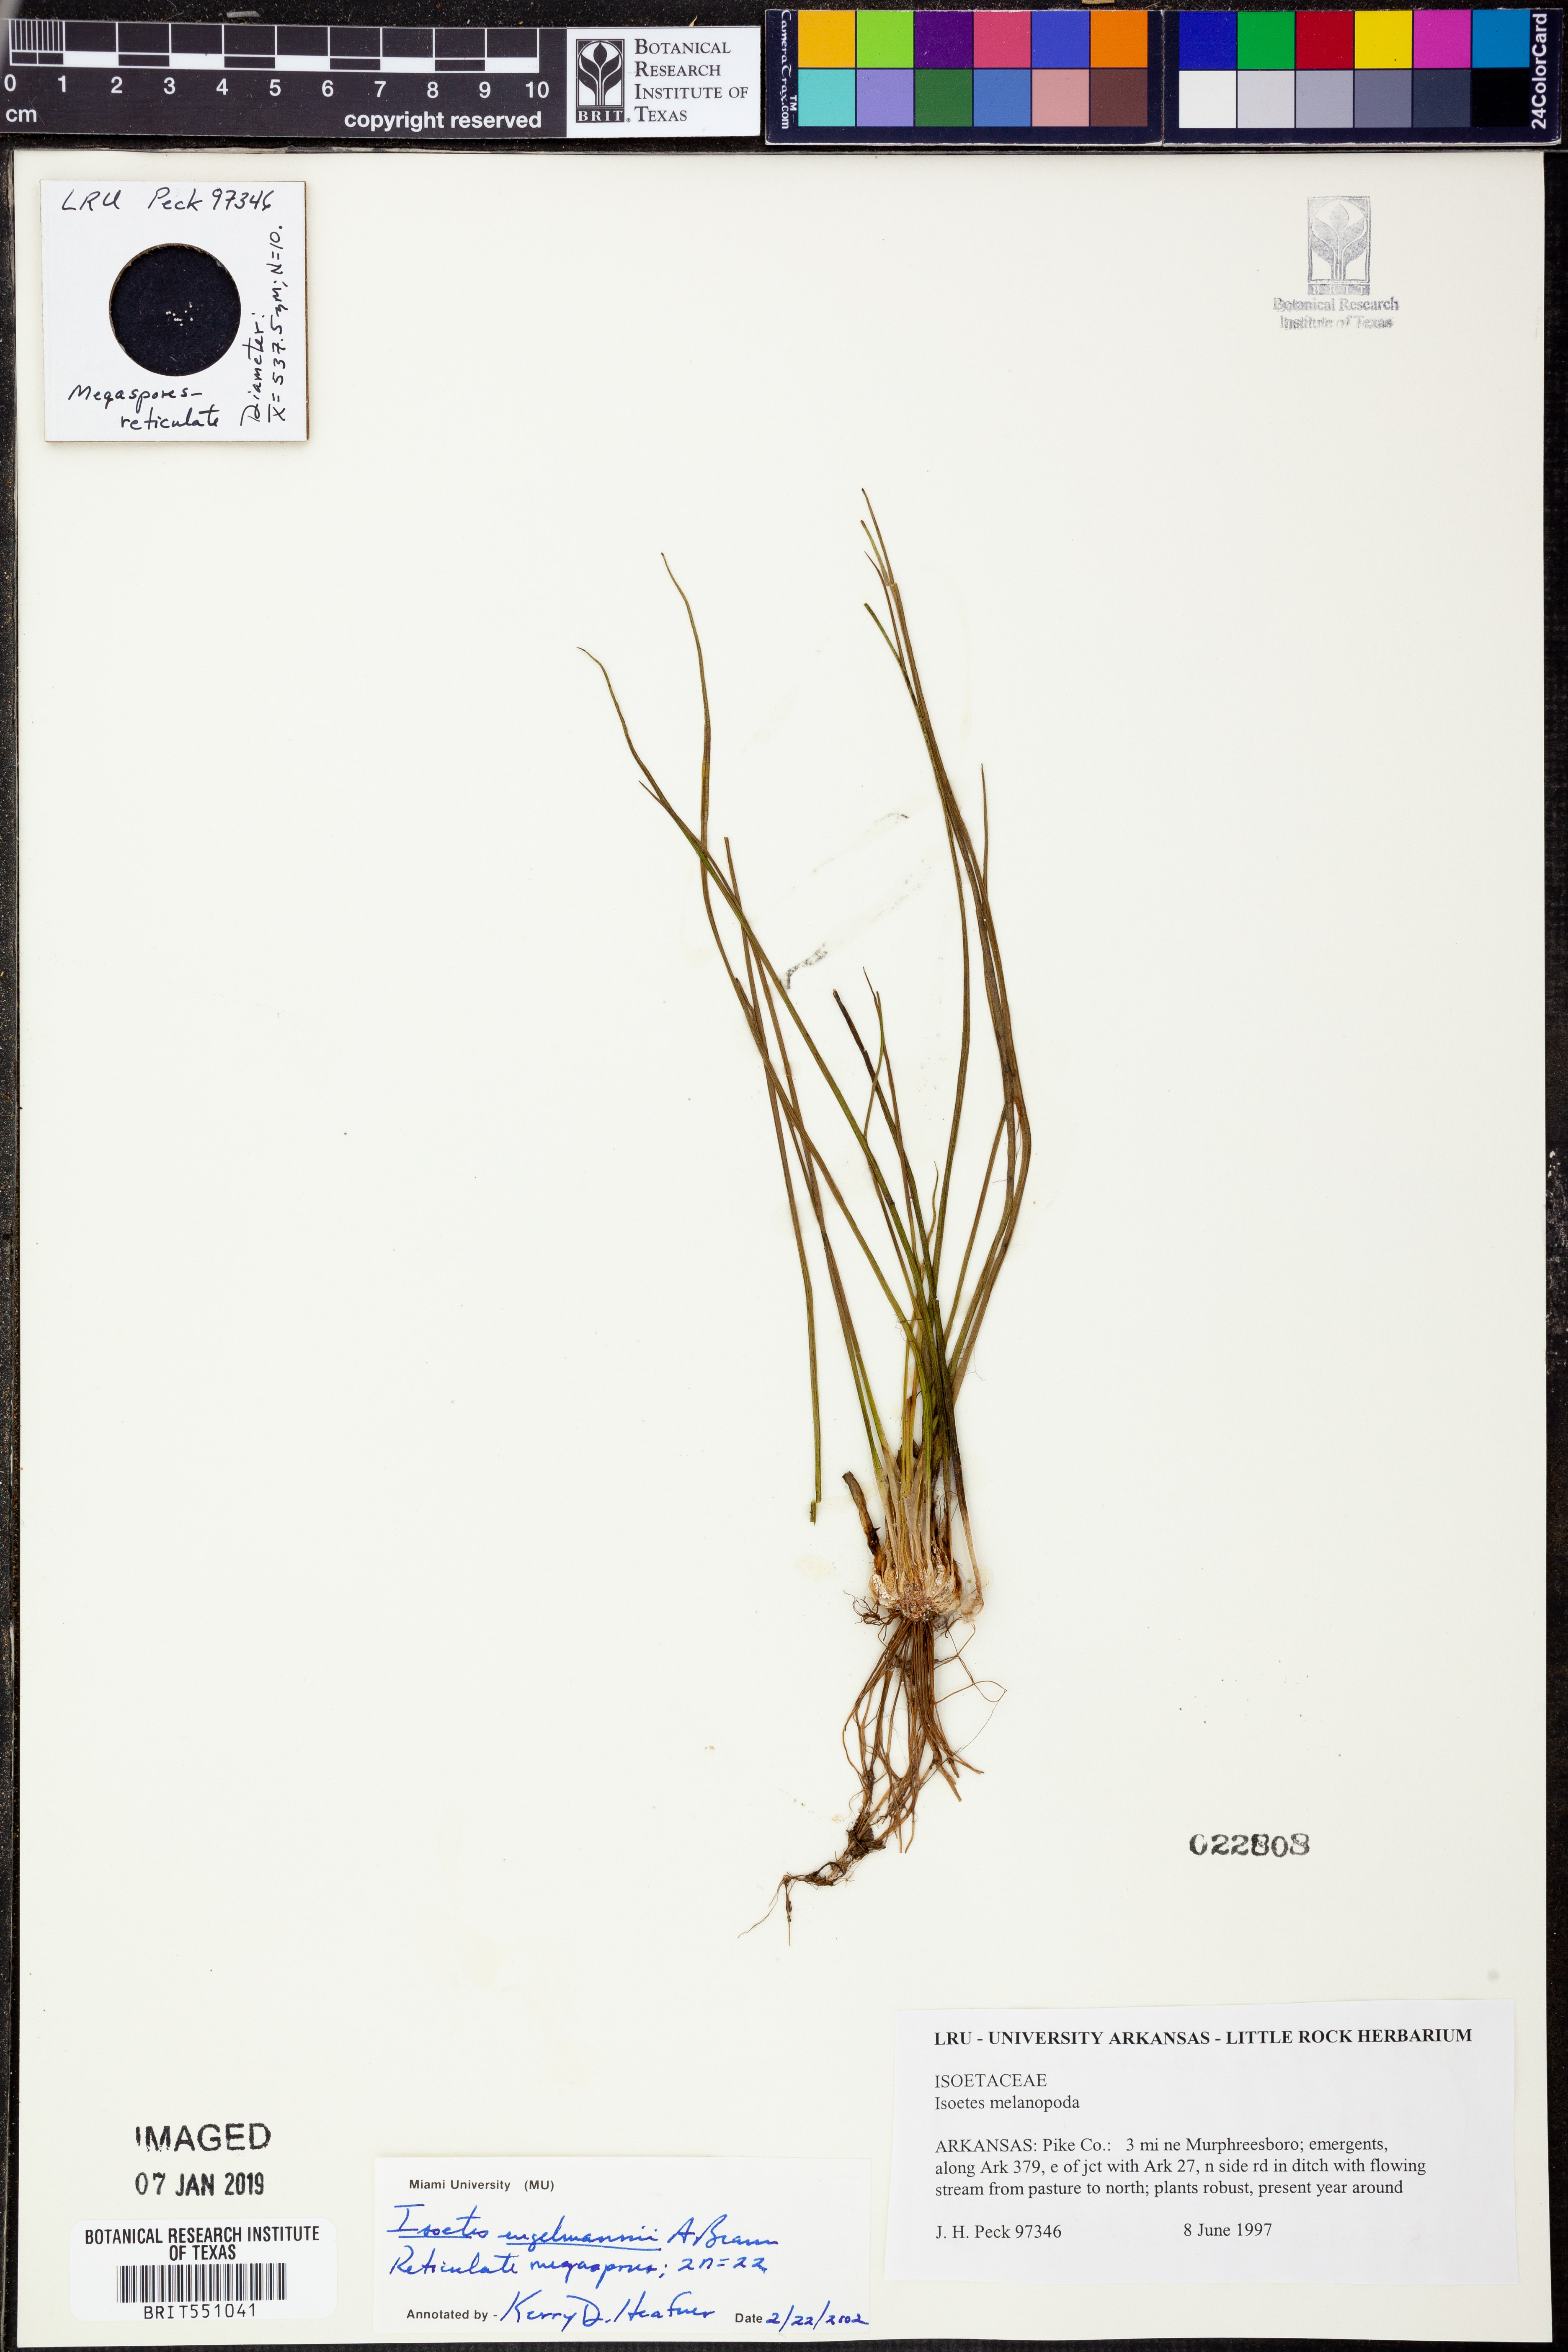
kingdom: Plantae
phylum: Tracheophyta
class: Lycopodiopsida
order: Isoetales
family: Isoetaceae
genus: Isoetes
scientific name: Isoetes engelmannii
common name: Engelmann's quillwort
